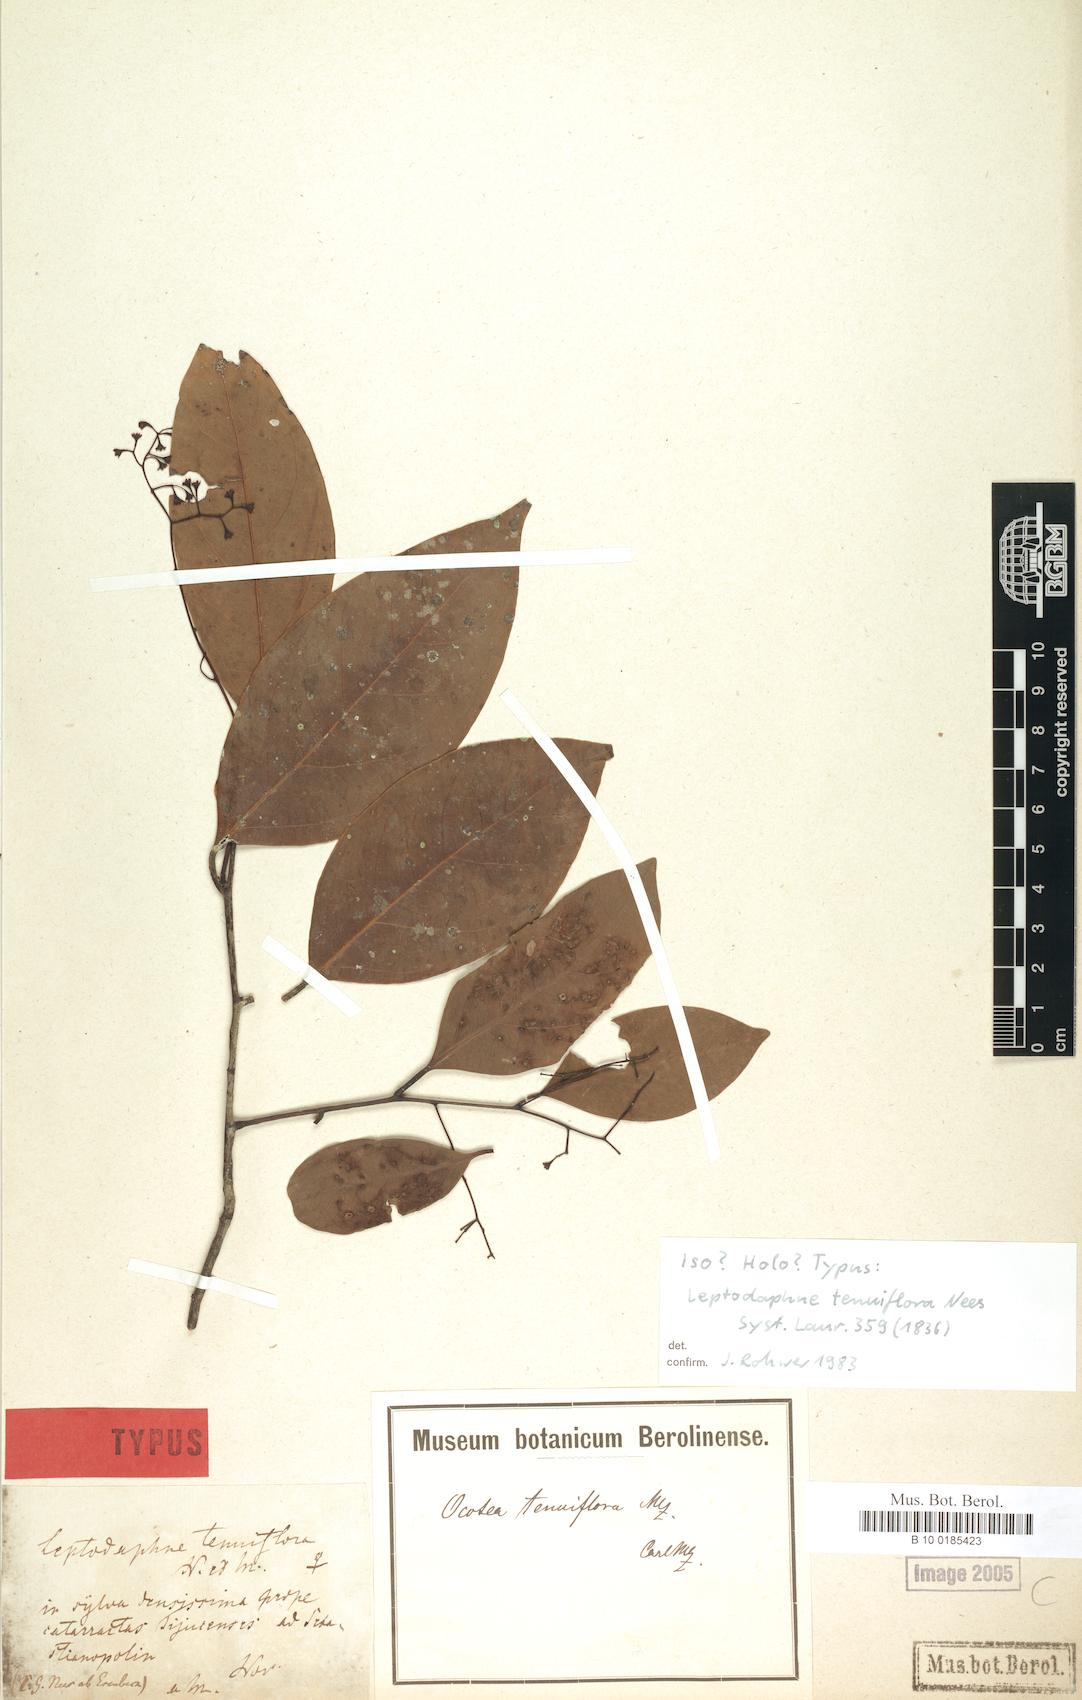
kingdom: Plantae
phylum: Tracheophyta
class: Magnoliopsida
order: Laurales
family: Lauraceae
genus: Ocotea
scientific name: Ocotea tenuiflora
